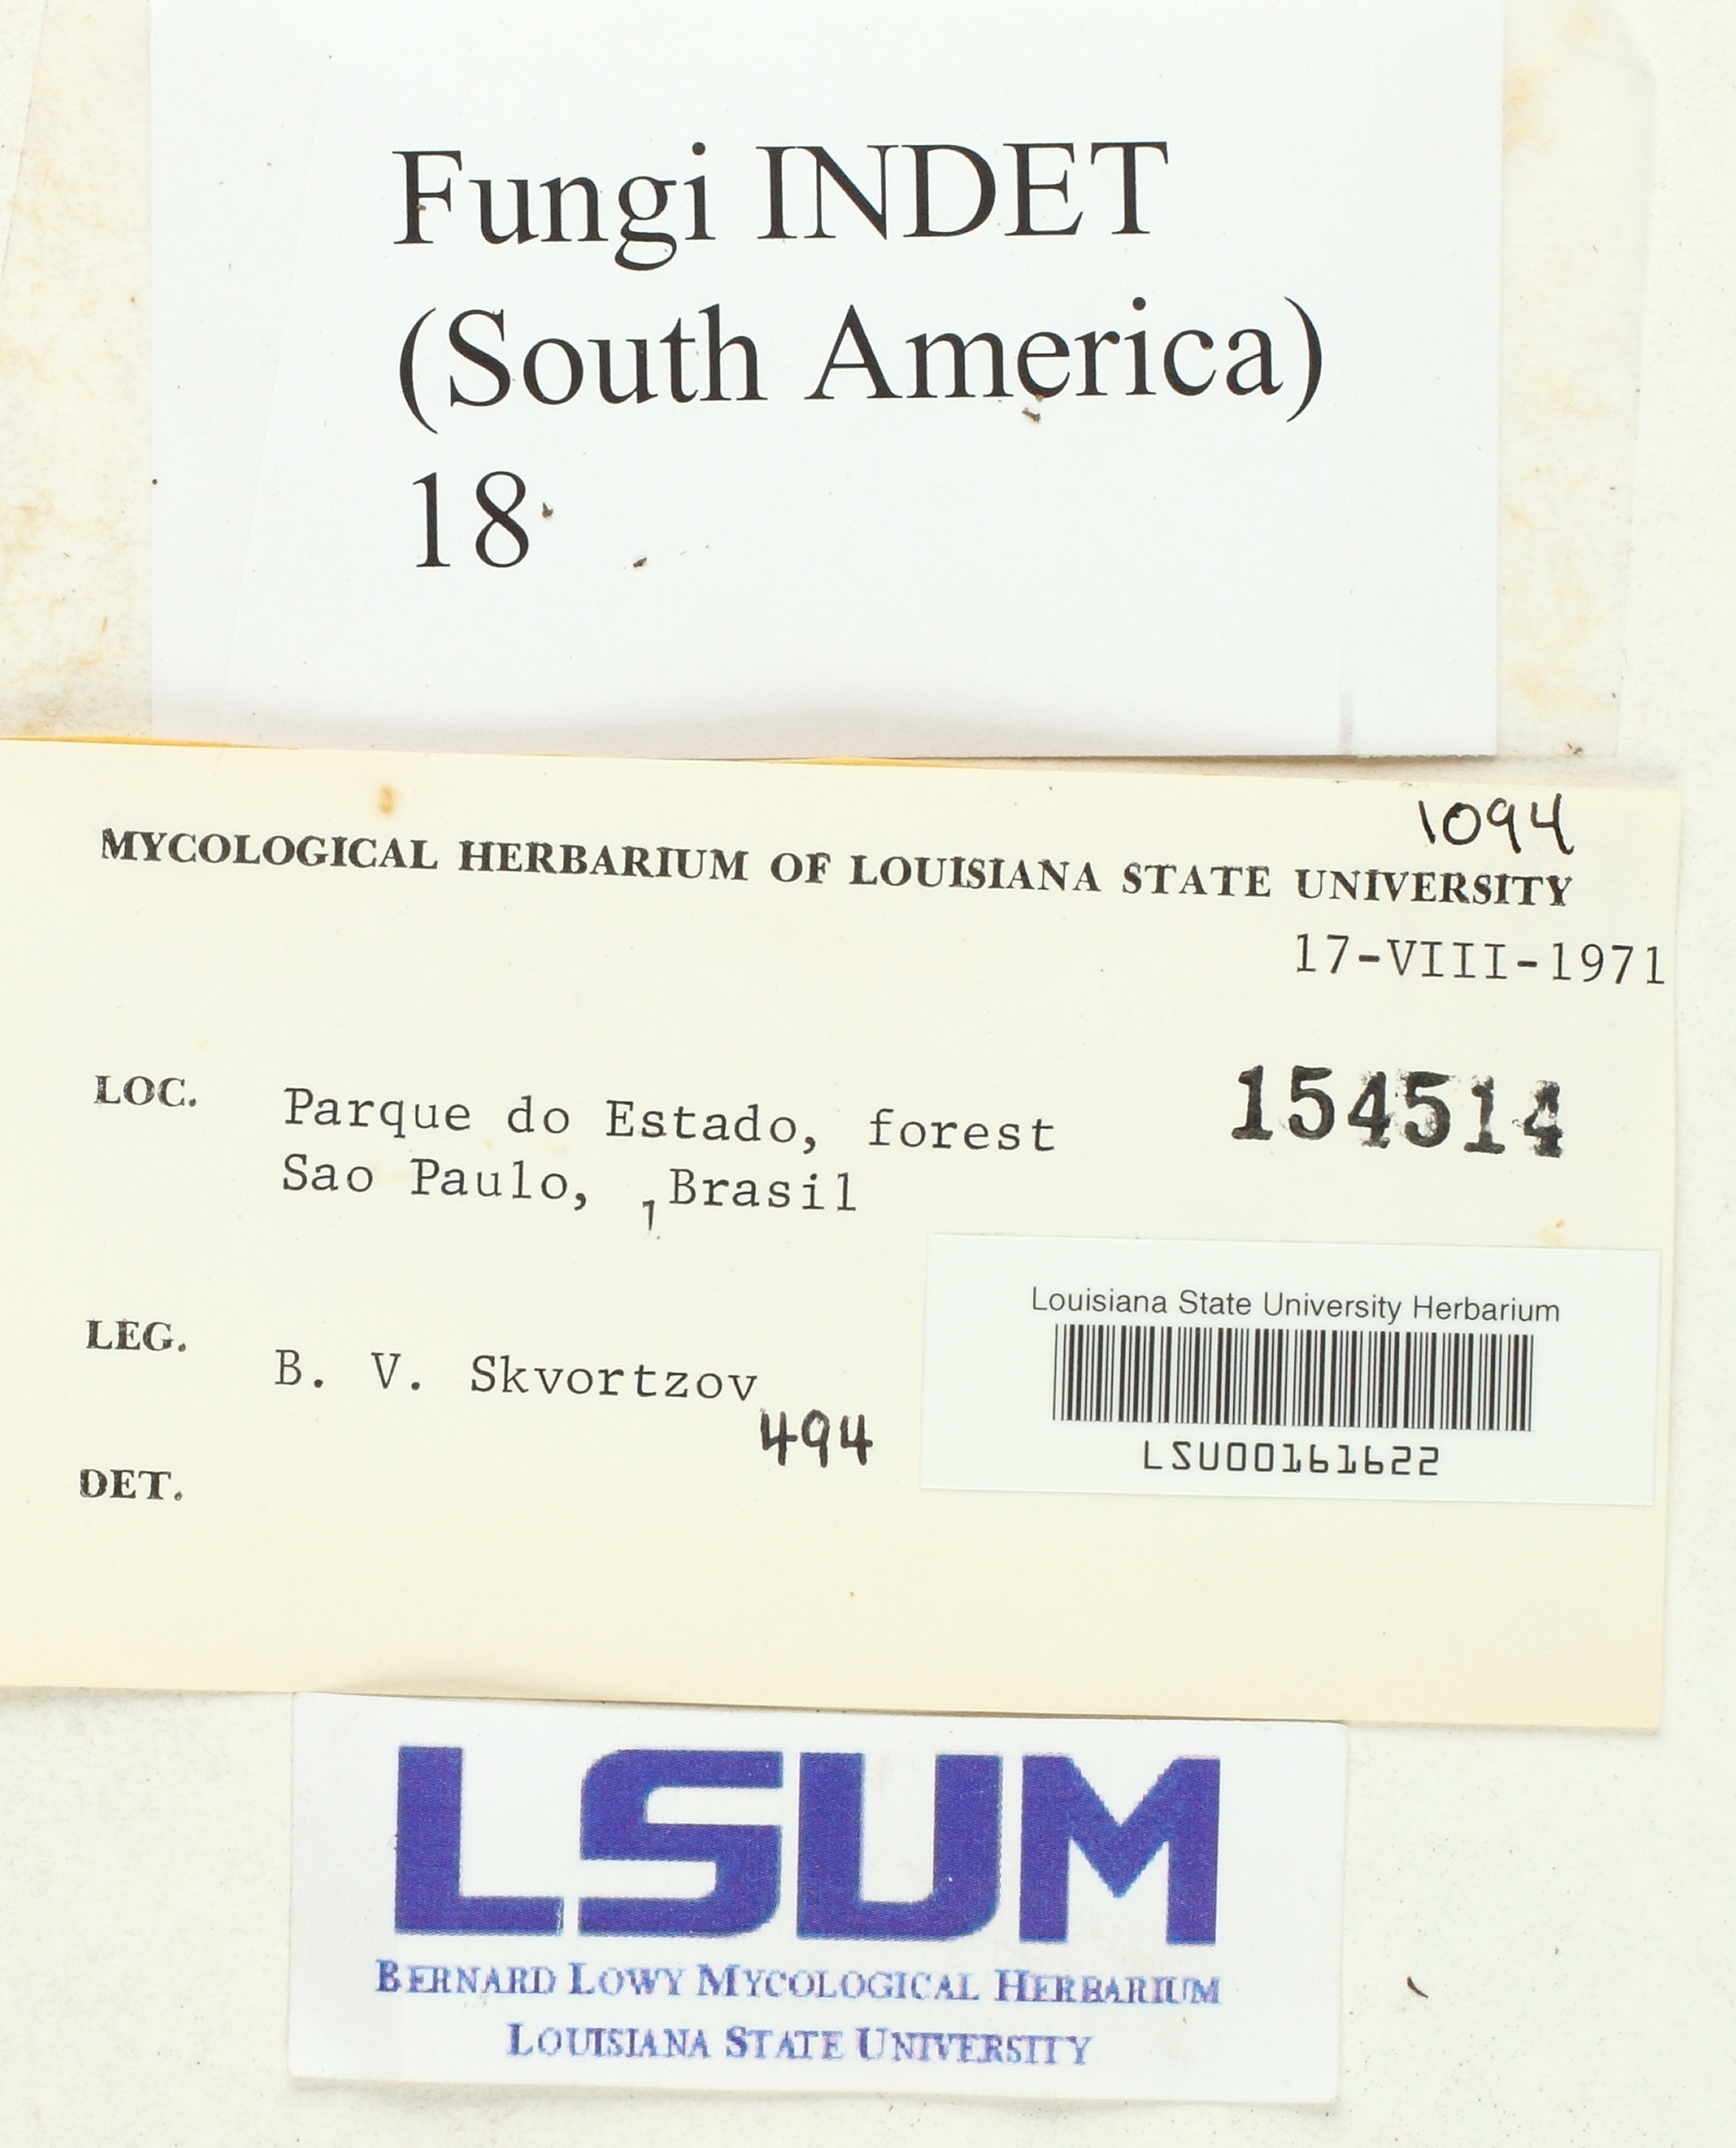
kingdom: Fungi
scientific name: Fungi
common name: Fungi
